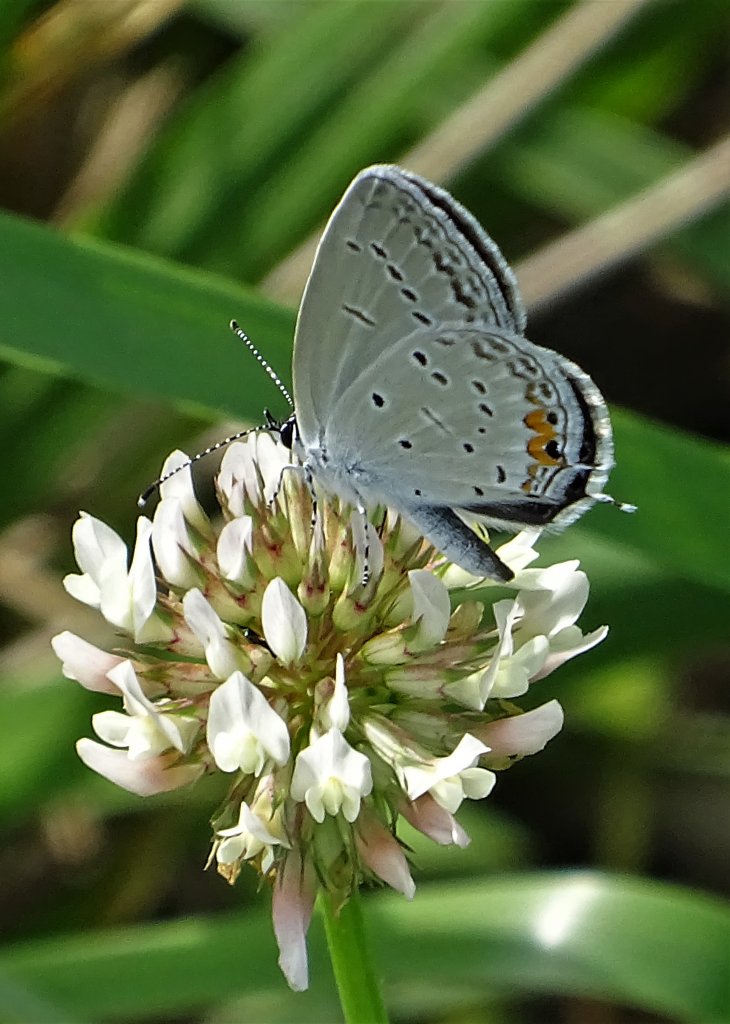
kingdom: Animalia
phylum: Arthropoda
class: Insecta
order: Lepidoptera
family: Lycaenidae
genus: Elkalyce
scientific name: Elkalyce comyntas
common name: Eastern Tailed-Blue
